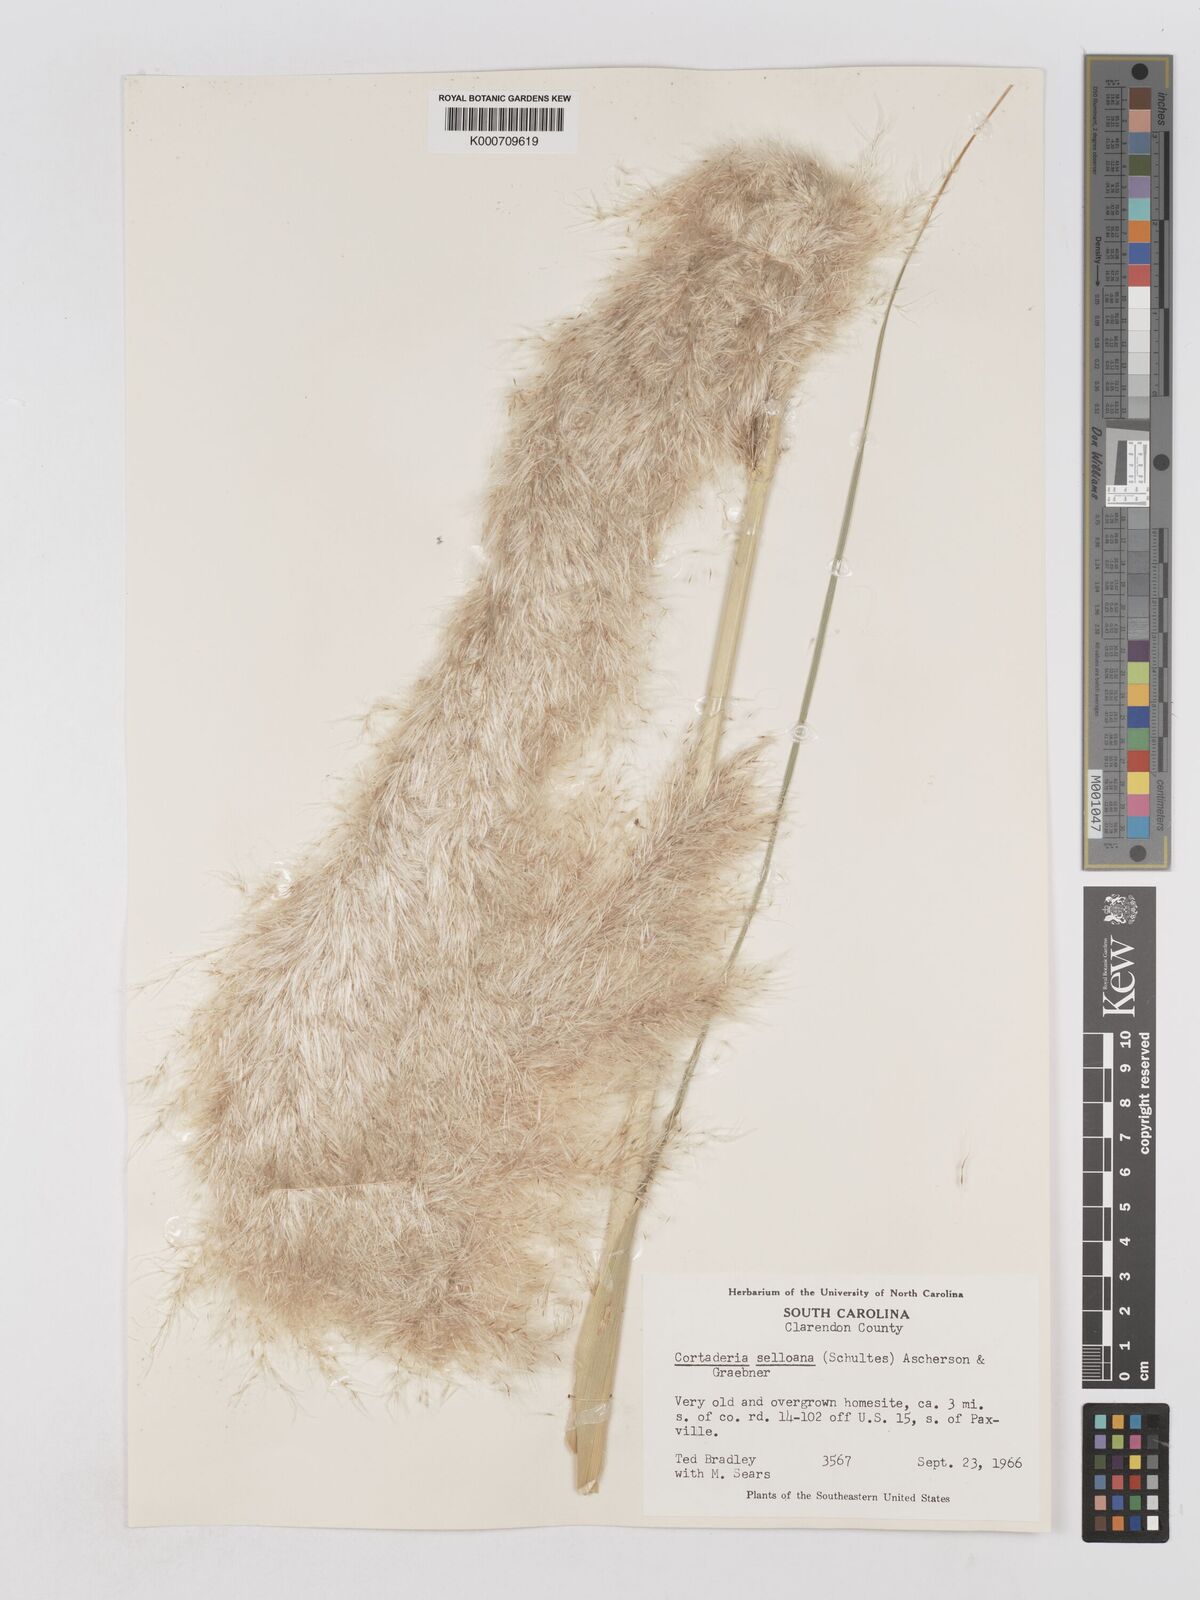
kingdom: Plantae
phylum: Tracheophyta
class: Liliopsida
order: Poales
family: Poaceae
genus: Cortaderia
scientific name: Cortaderia selloana
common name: Uruguayan pampas grass
